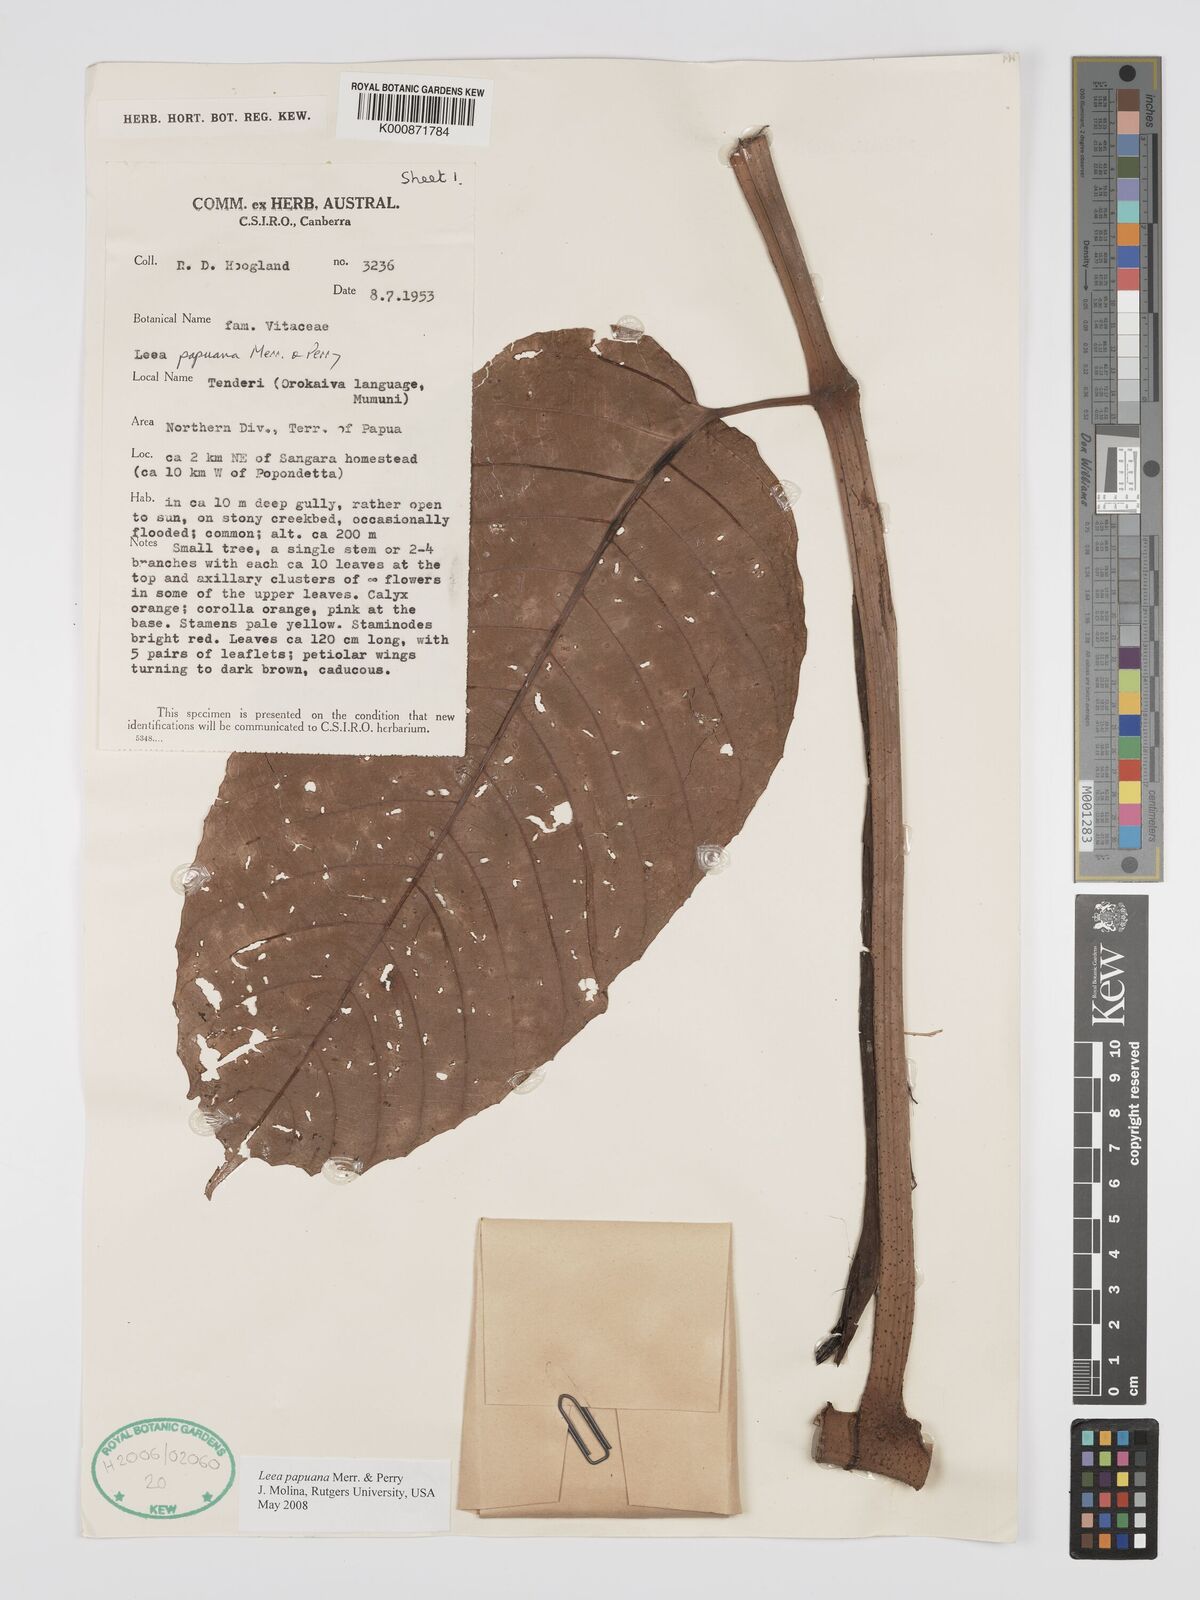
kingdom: Plantae
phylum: Tracheophyta
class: Magnoliopsida
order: Vitales
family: Vitaceae
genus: Leea
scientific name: Leea papuana
